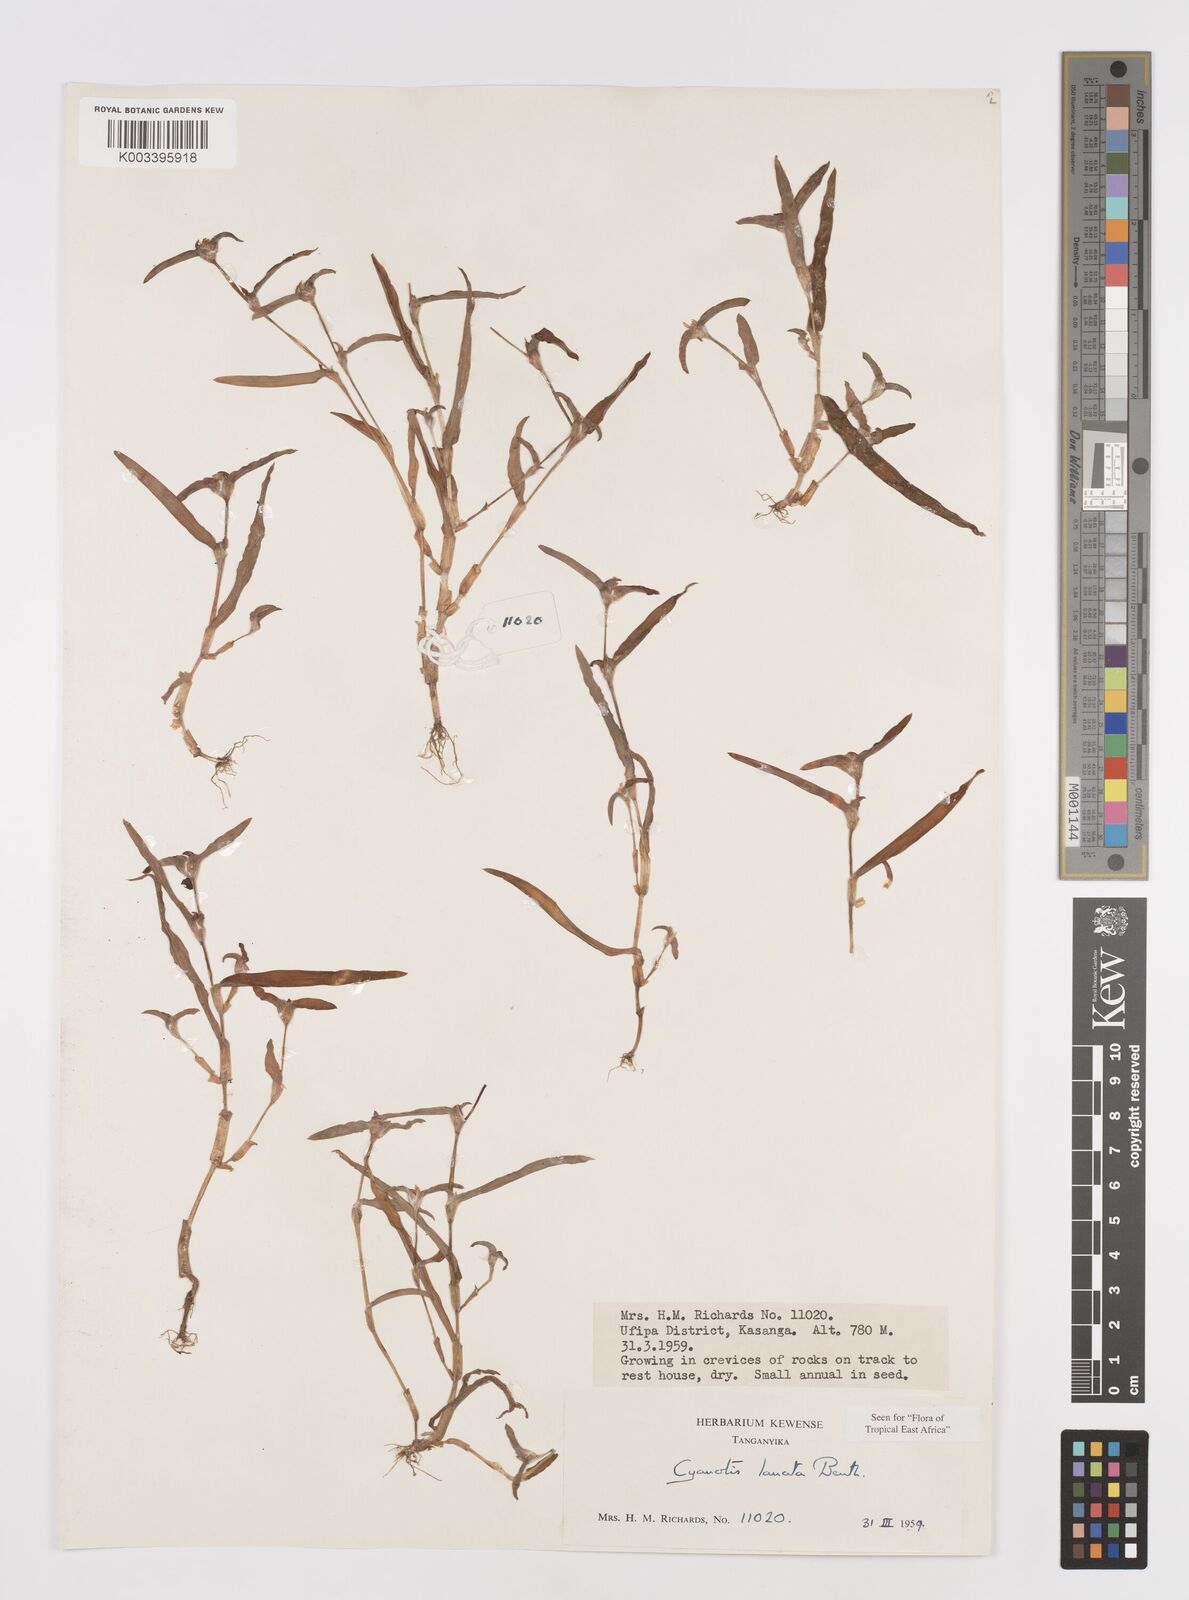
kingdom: Plantae
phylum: Tracheophyta
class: Liliopsida
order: Commelinales
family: Commelinaceae
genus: Cyanotis
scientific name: Cyanotis lanata
